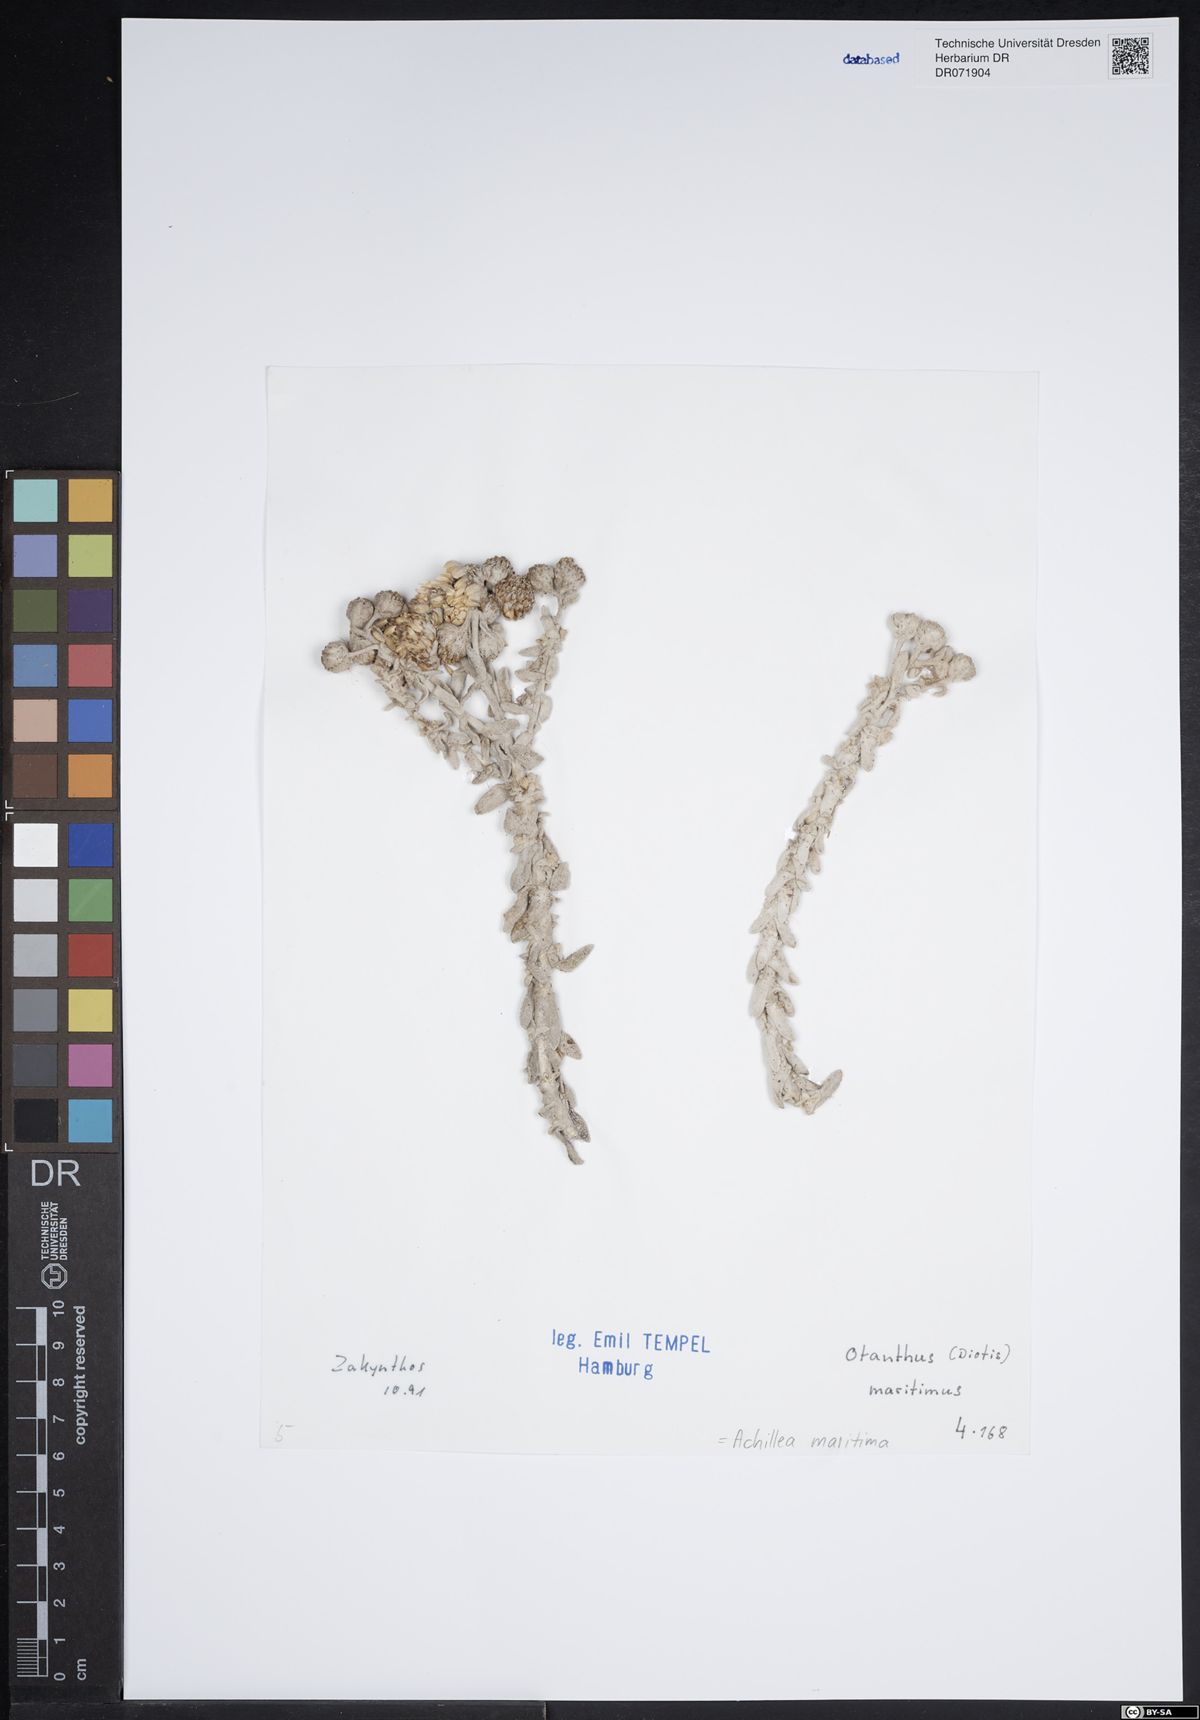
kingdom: Plantae
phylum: Tracheophyta
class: Magnoliopsida
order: Asterales
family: Asteraceae
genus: Achillea
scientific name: Achillea maritima
